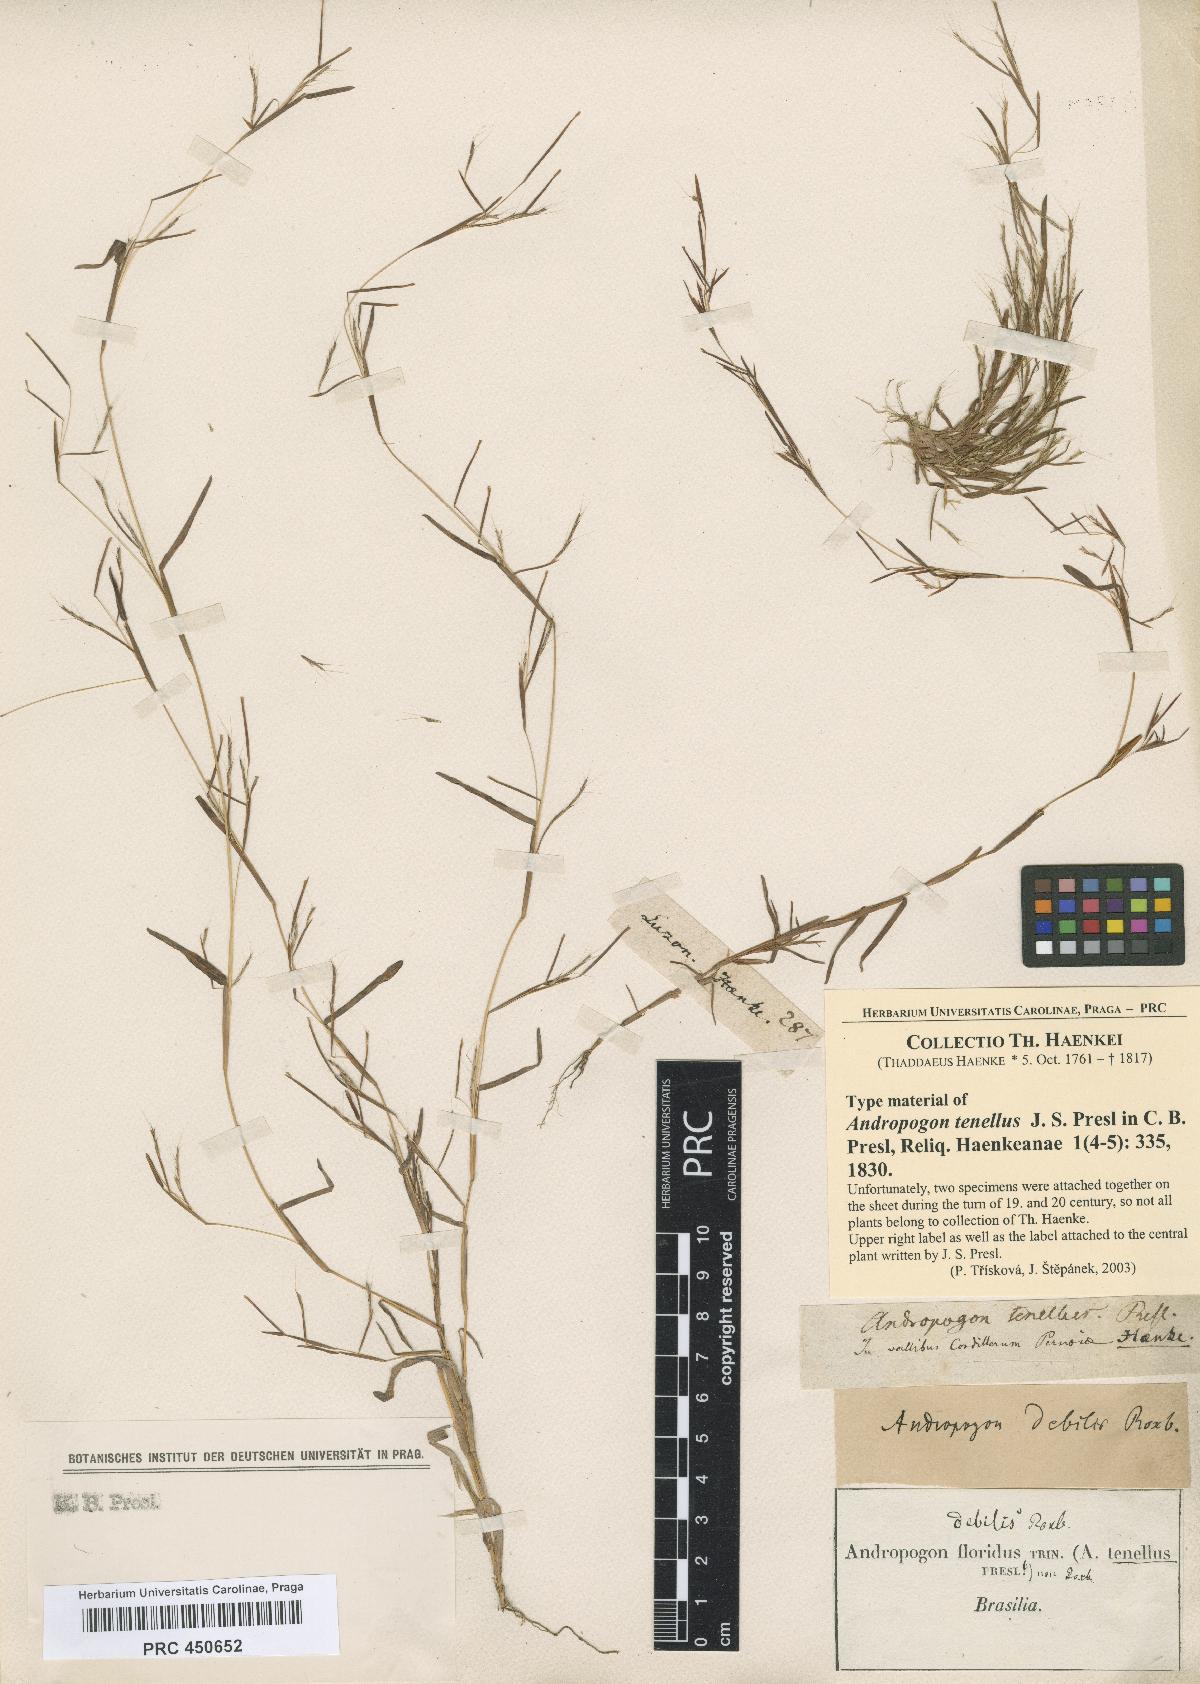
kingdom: Plantae
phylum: Tracheophyta
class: Liliopsida
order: Poales
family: Poaceae
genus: Schizachyrium
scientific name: Schizachyrium brevifolium
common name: Serillo dulce
